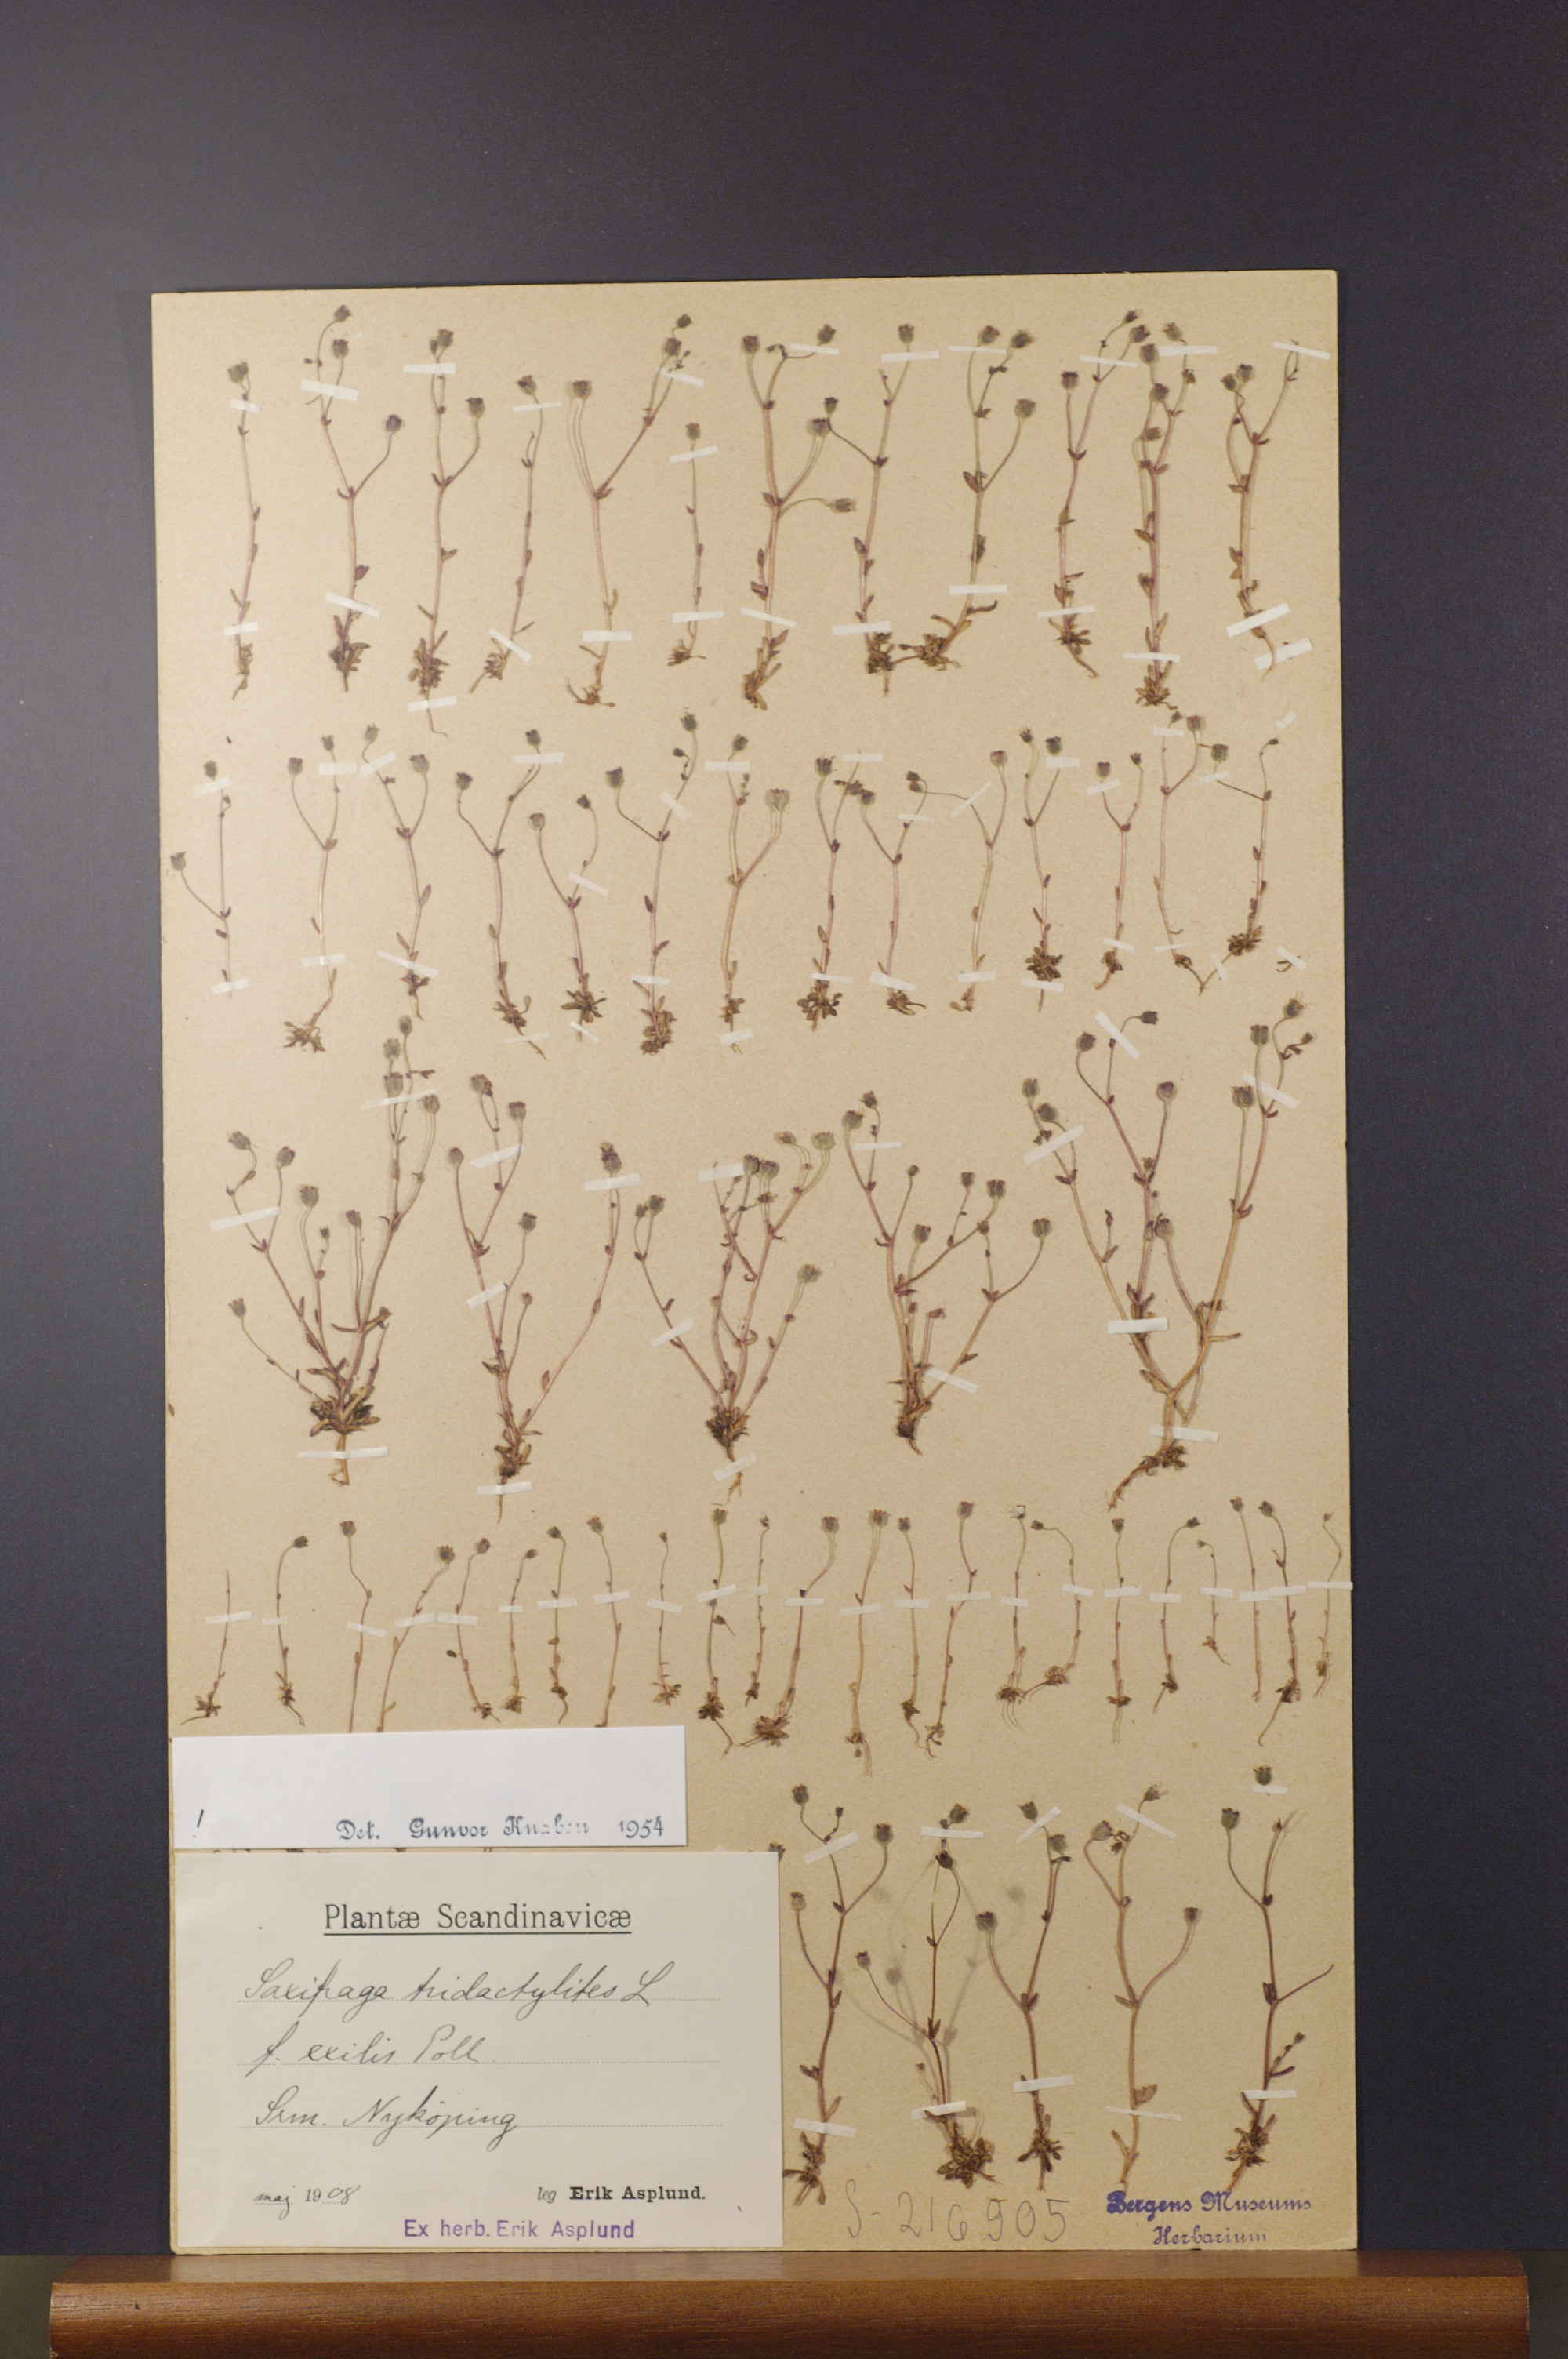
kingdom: Plantae
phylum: Tracheophyta
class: Magnoliopsida
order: Saxifragales
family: Saxifragaceae
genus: Saxifraga
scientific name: Saxifraga tridactylites
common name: Rue-leaved saxifrage
